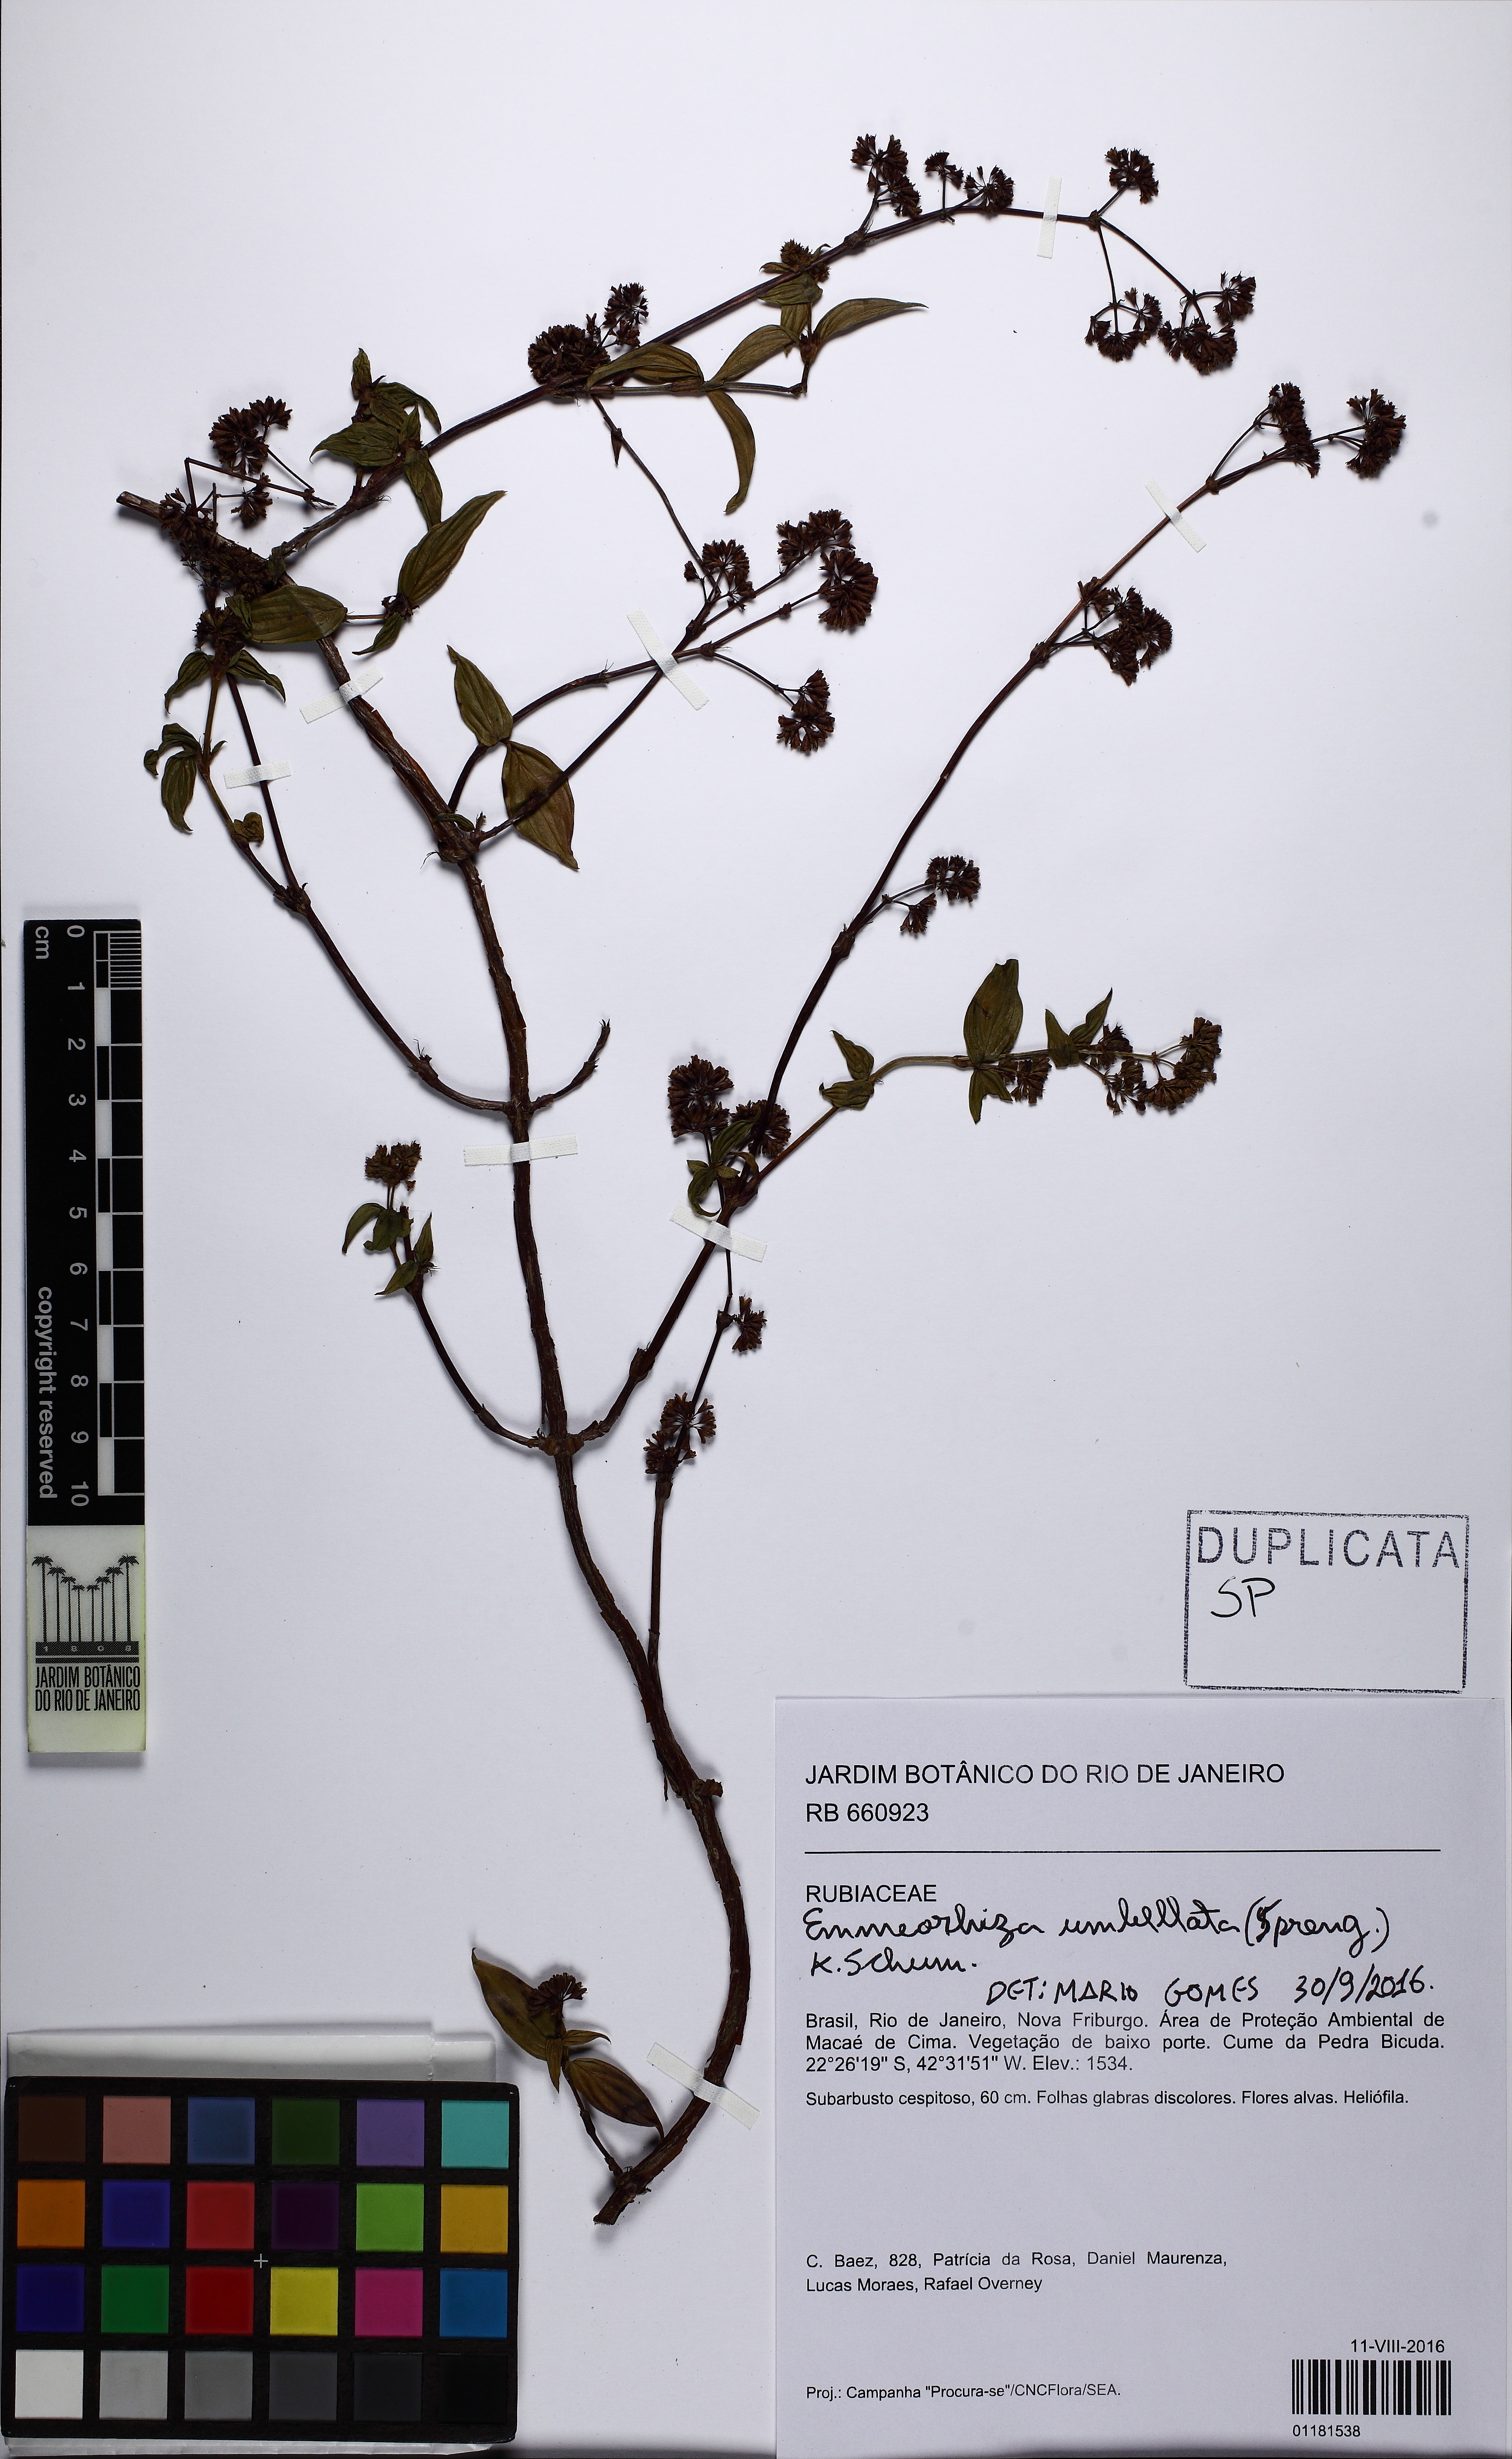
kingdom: Plantae
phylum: Tracheophyta
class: Magnoliopsida
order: Gentianales
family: Rubiaceae
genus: Emmeorhiza
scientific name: Emmeorhiza umbellata
